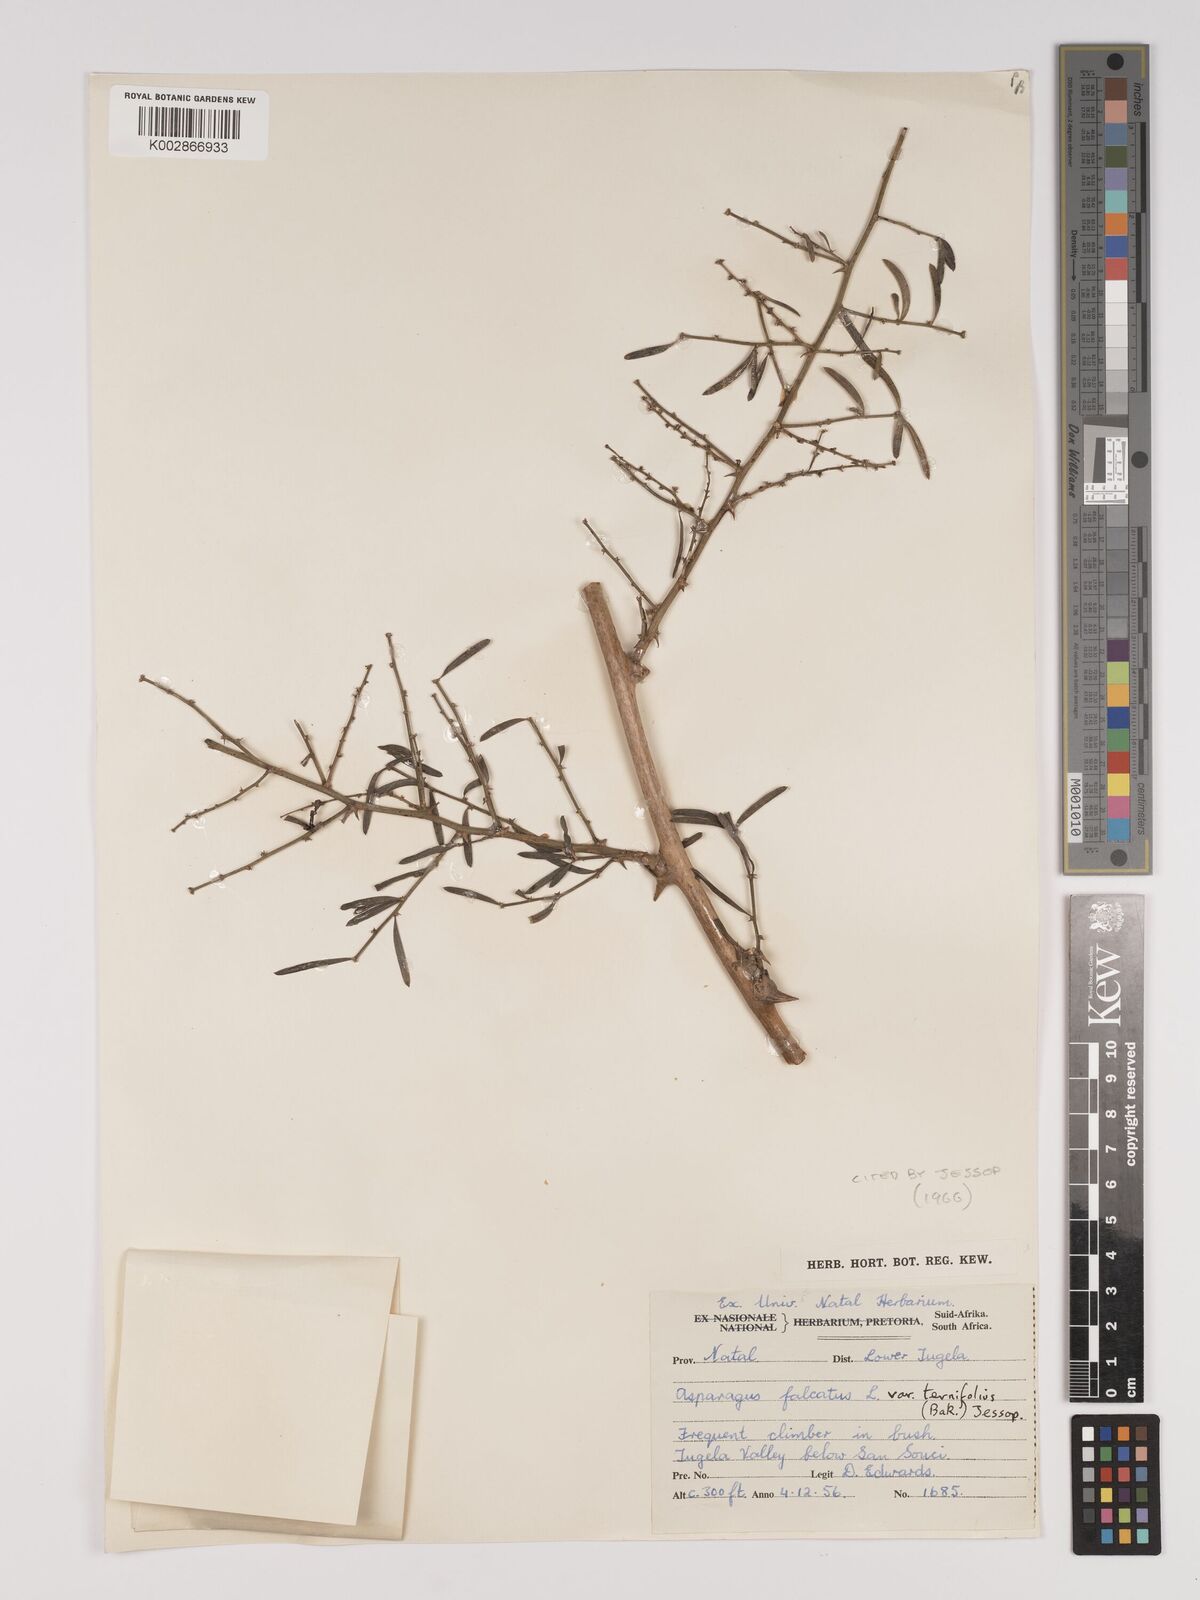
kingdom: Plantae
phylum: Tracheophyta
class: Liliopsida
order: Asparagales
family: Asparagaceae
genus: Asparagus
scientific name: Asparagus falcatus
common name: Asparagus
